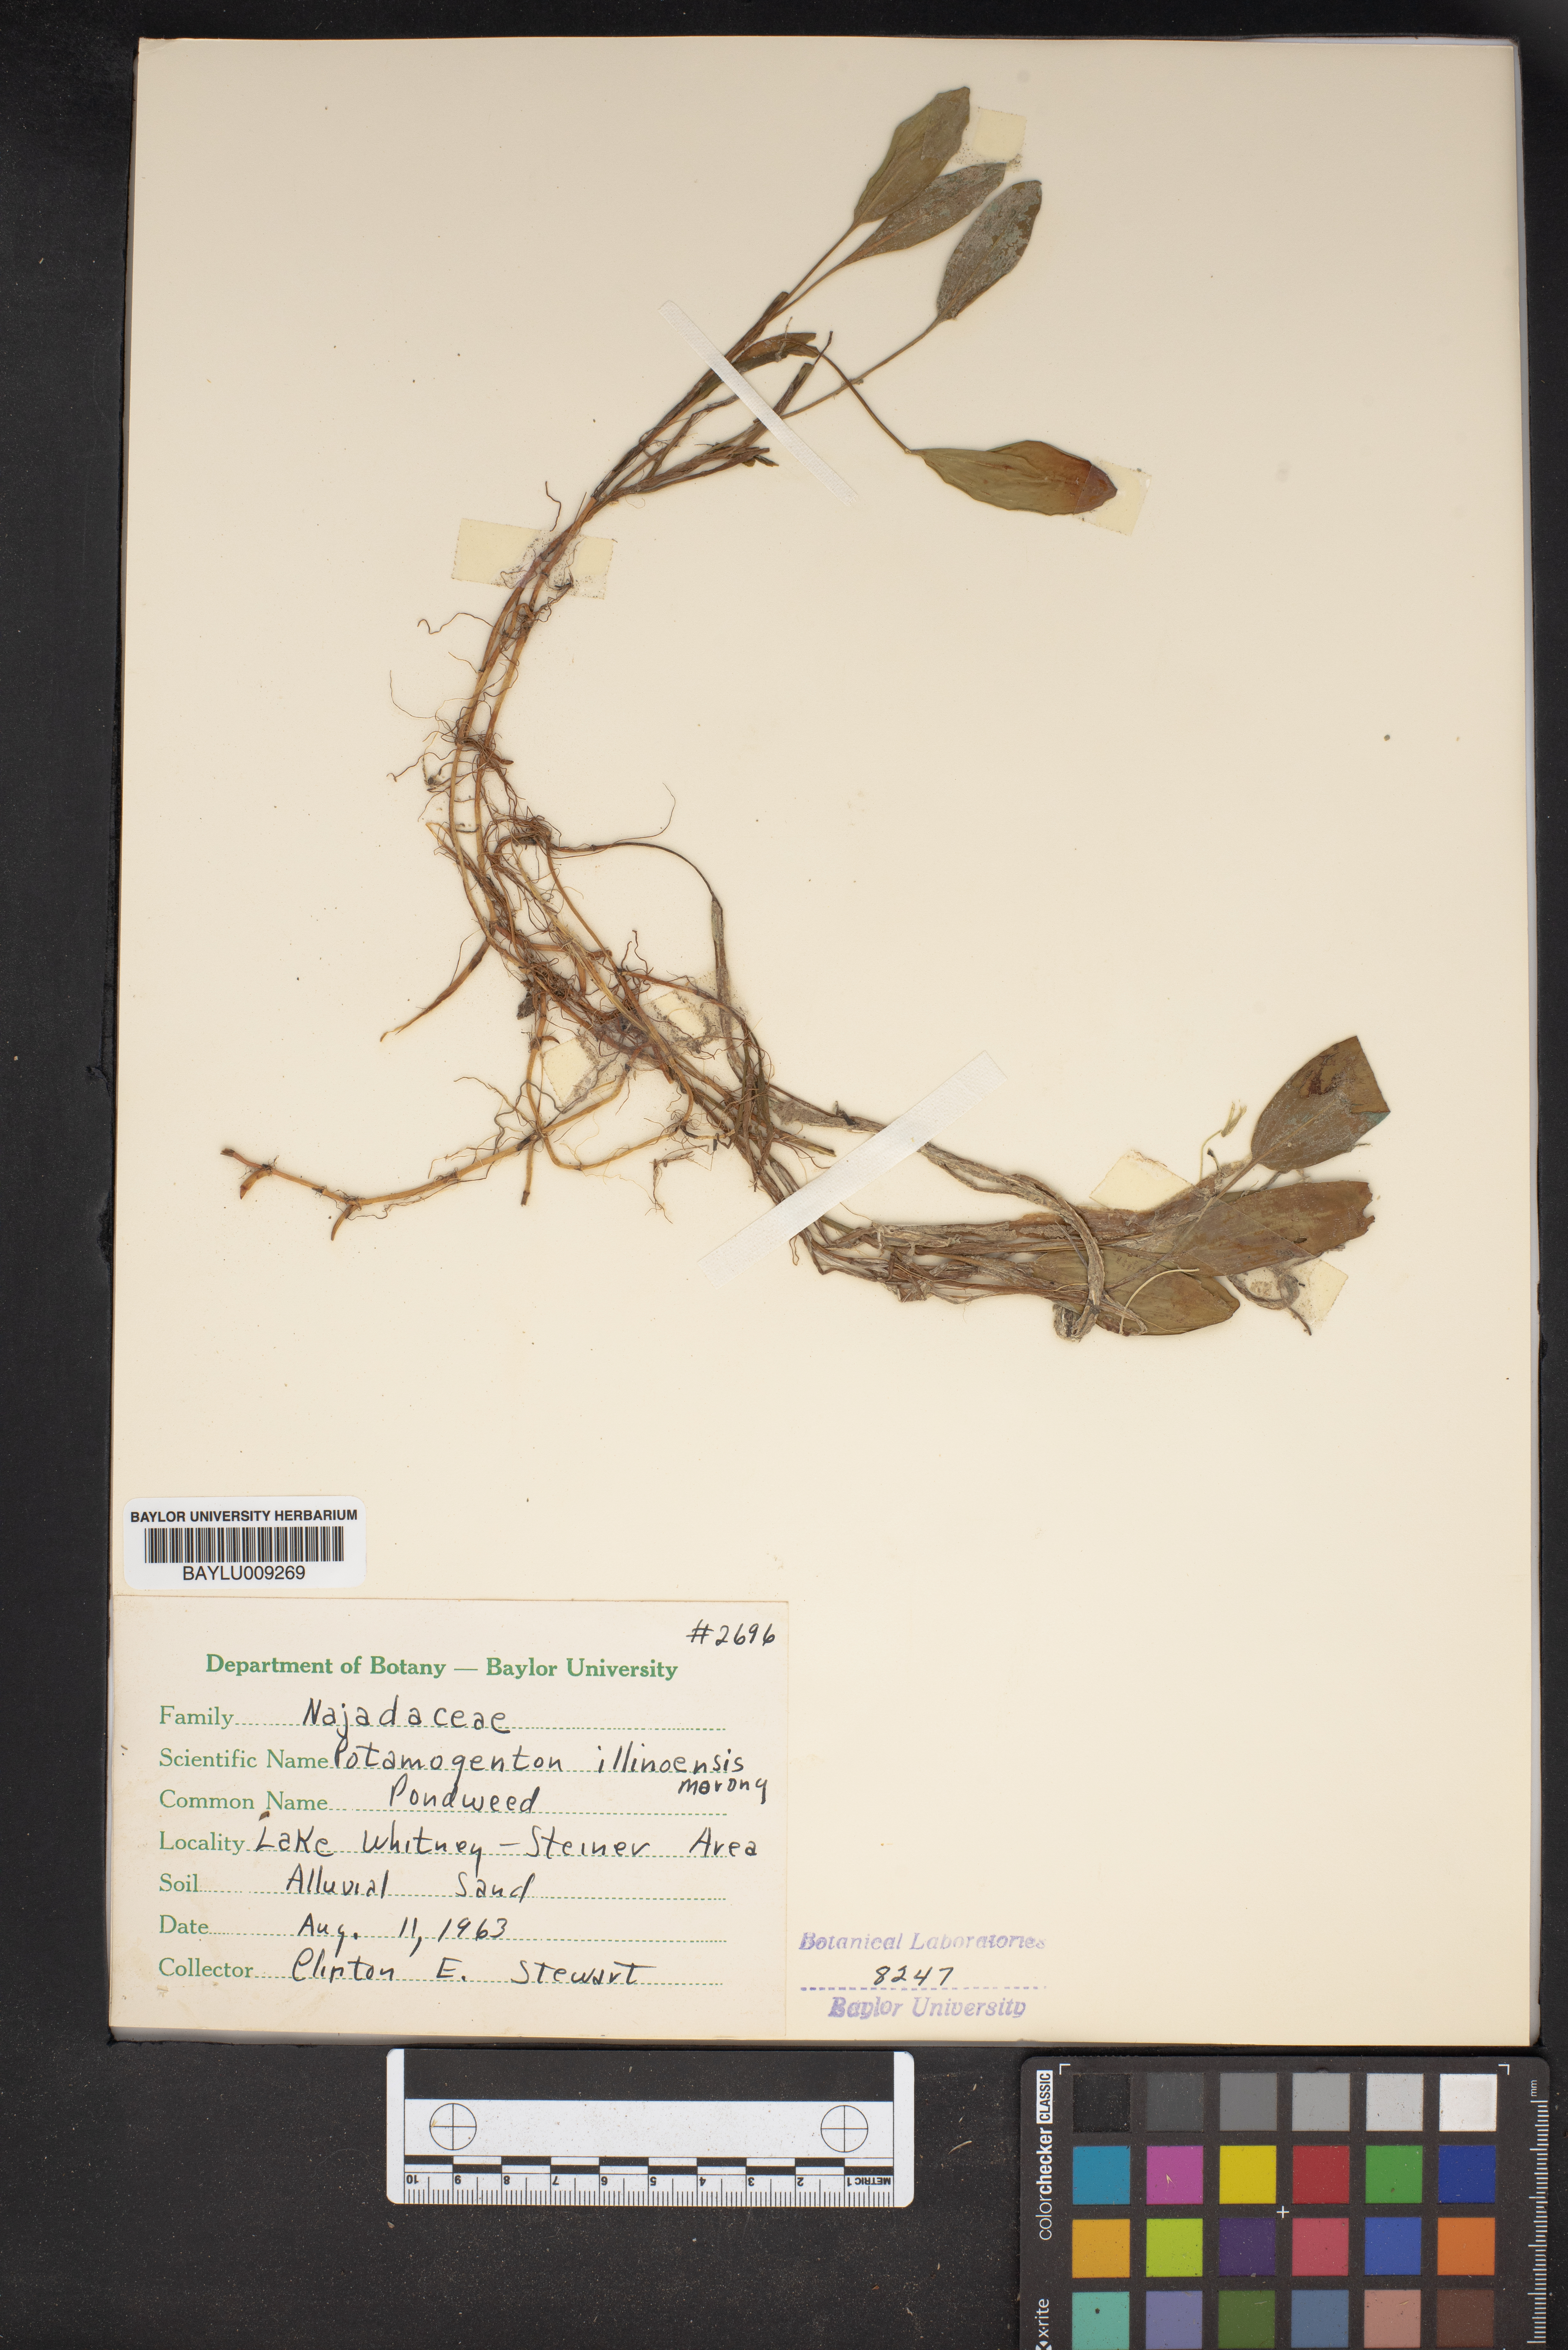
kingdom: Plantae
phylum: Tracheophyta
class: Liliopsida
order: Alismatales
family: Potamogetonaceae
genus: Potamogeton
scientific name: Potamogeton illinoensis
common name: Illinois pondweed
